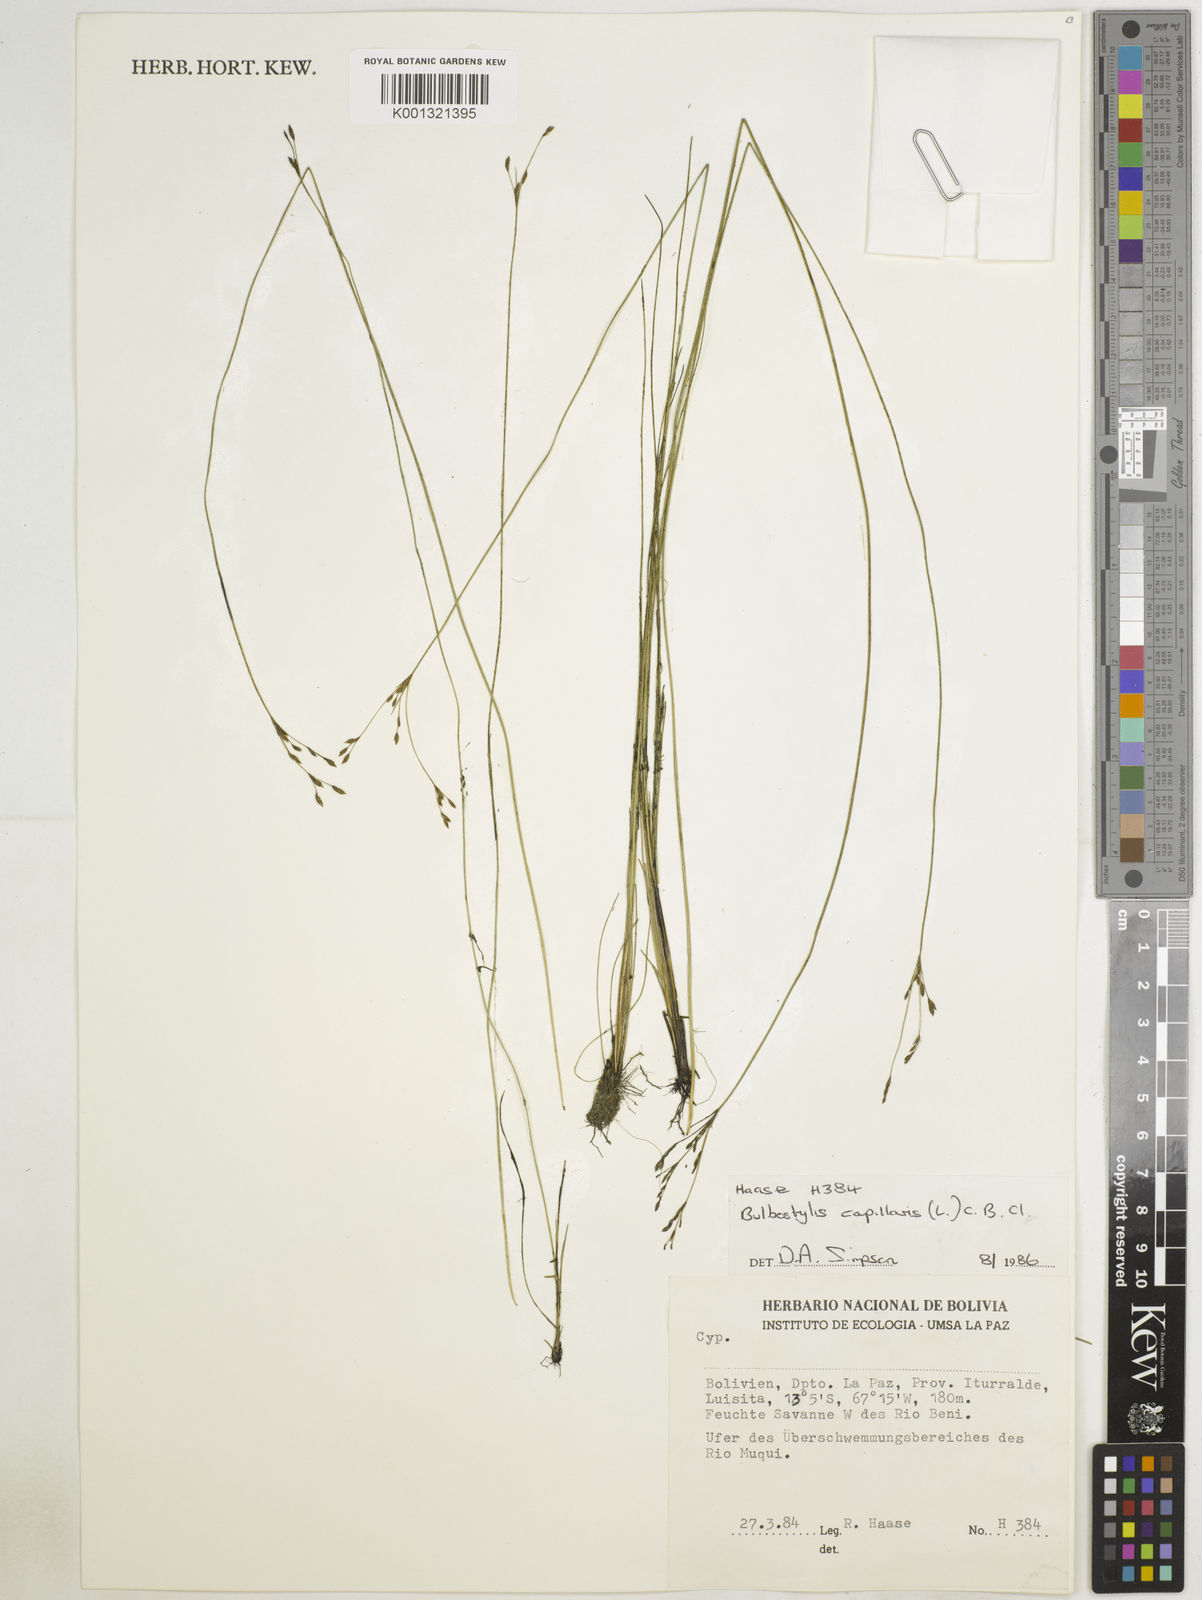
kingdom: Plantae
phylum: Tracheophyta
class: Liliopsida
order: Poales
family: Cyperaceae
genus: Bulbostylis
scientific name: Bulbostylis capillaris
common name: Densetuft hairsedge
